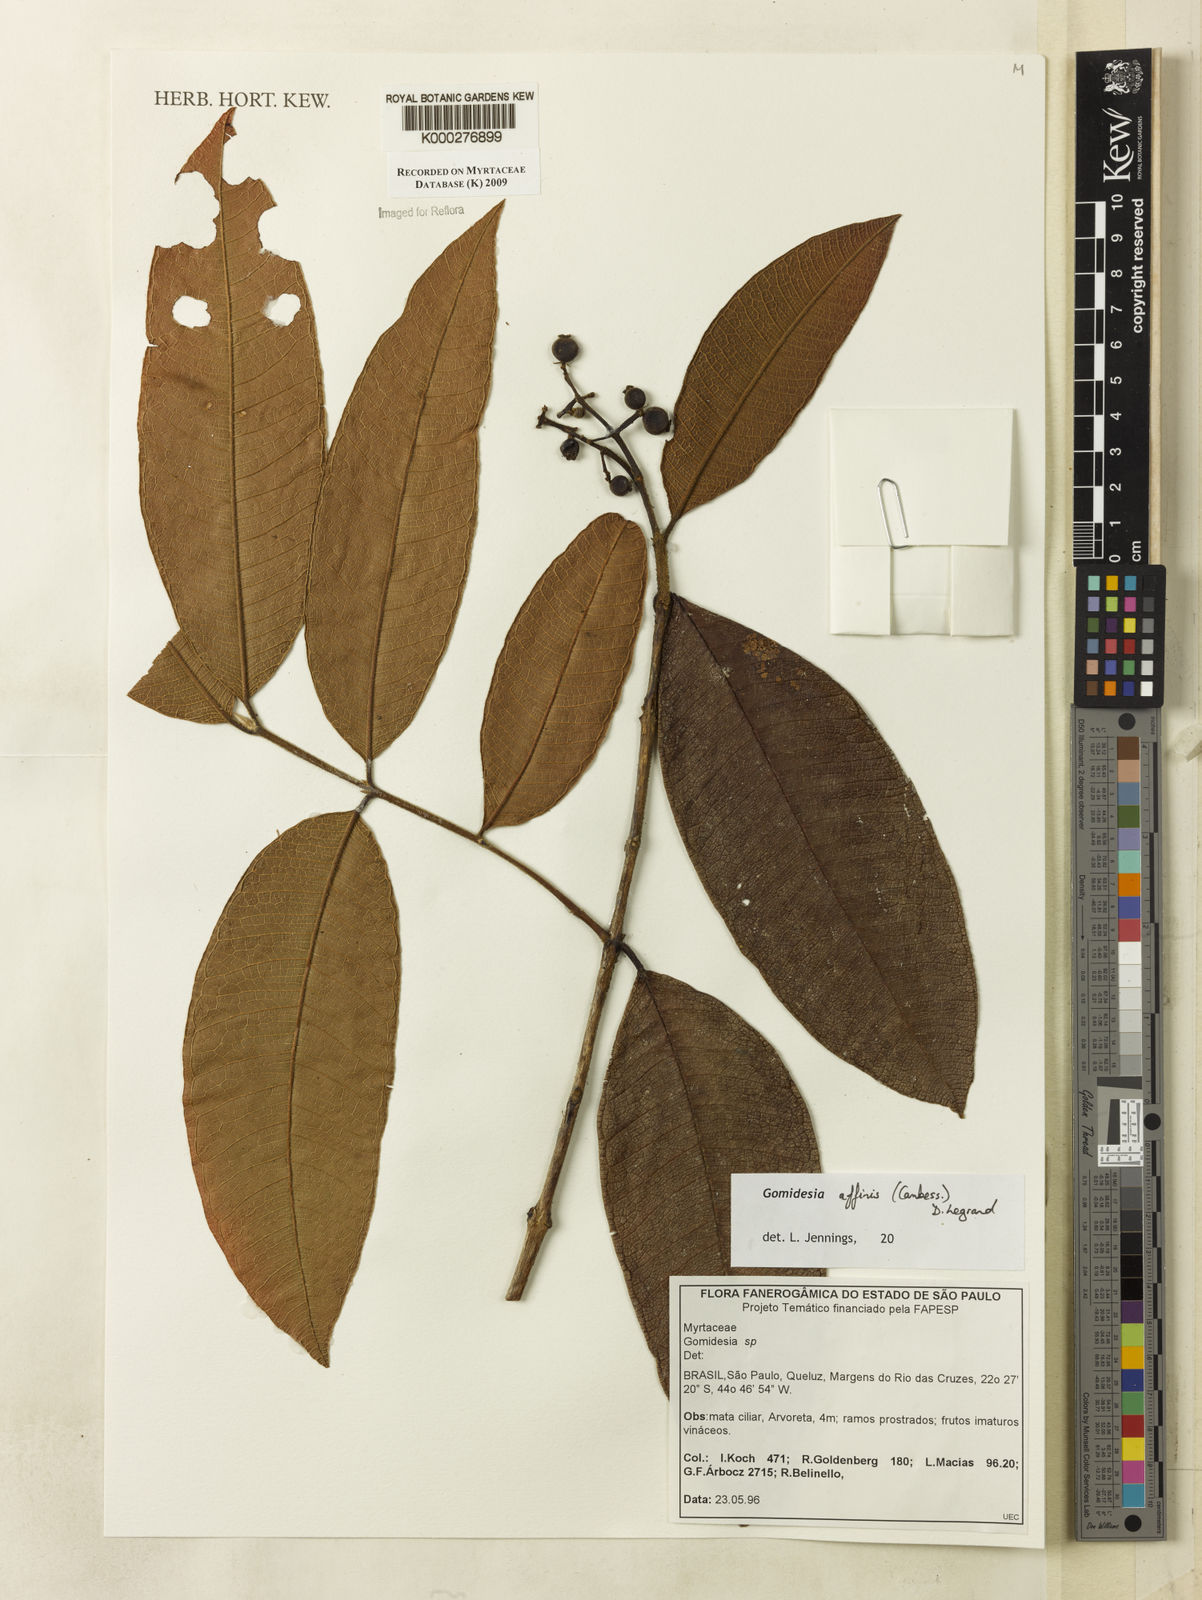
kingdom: Plantae
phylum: Tracheophyta
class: Magnoliopsida
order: Myrtales
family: Myrtaceae
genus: Myrcia
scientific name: Myrcia hebepetala
